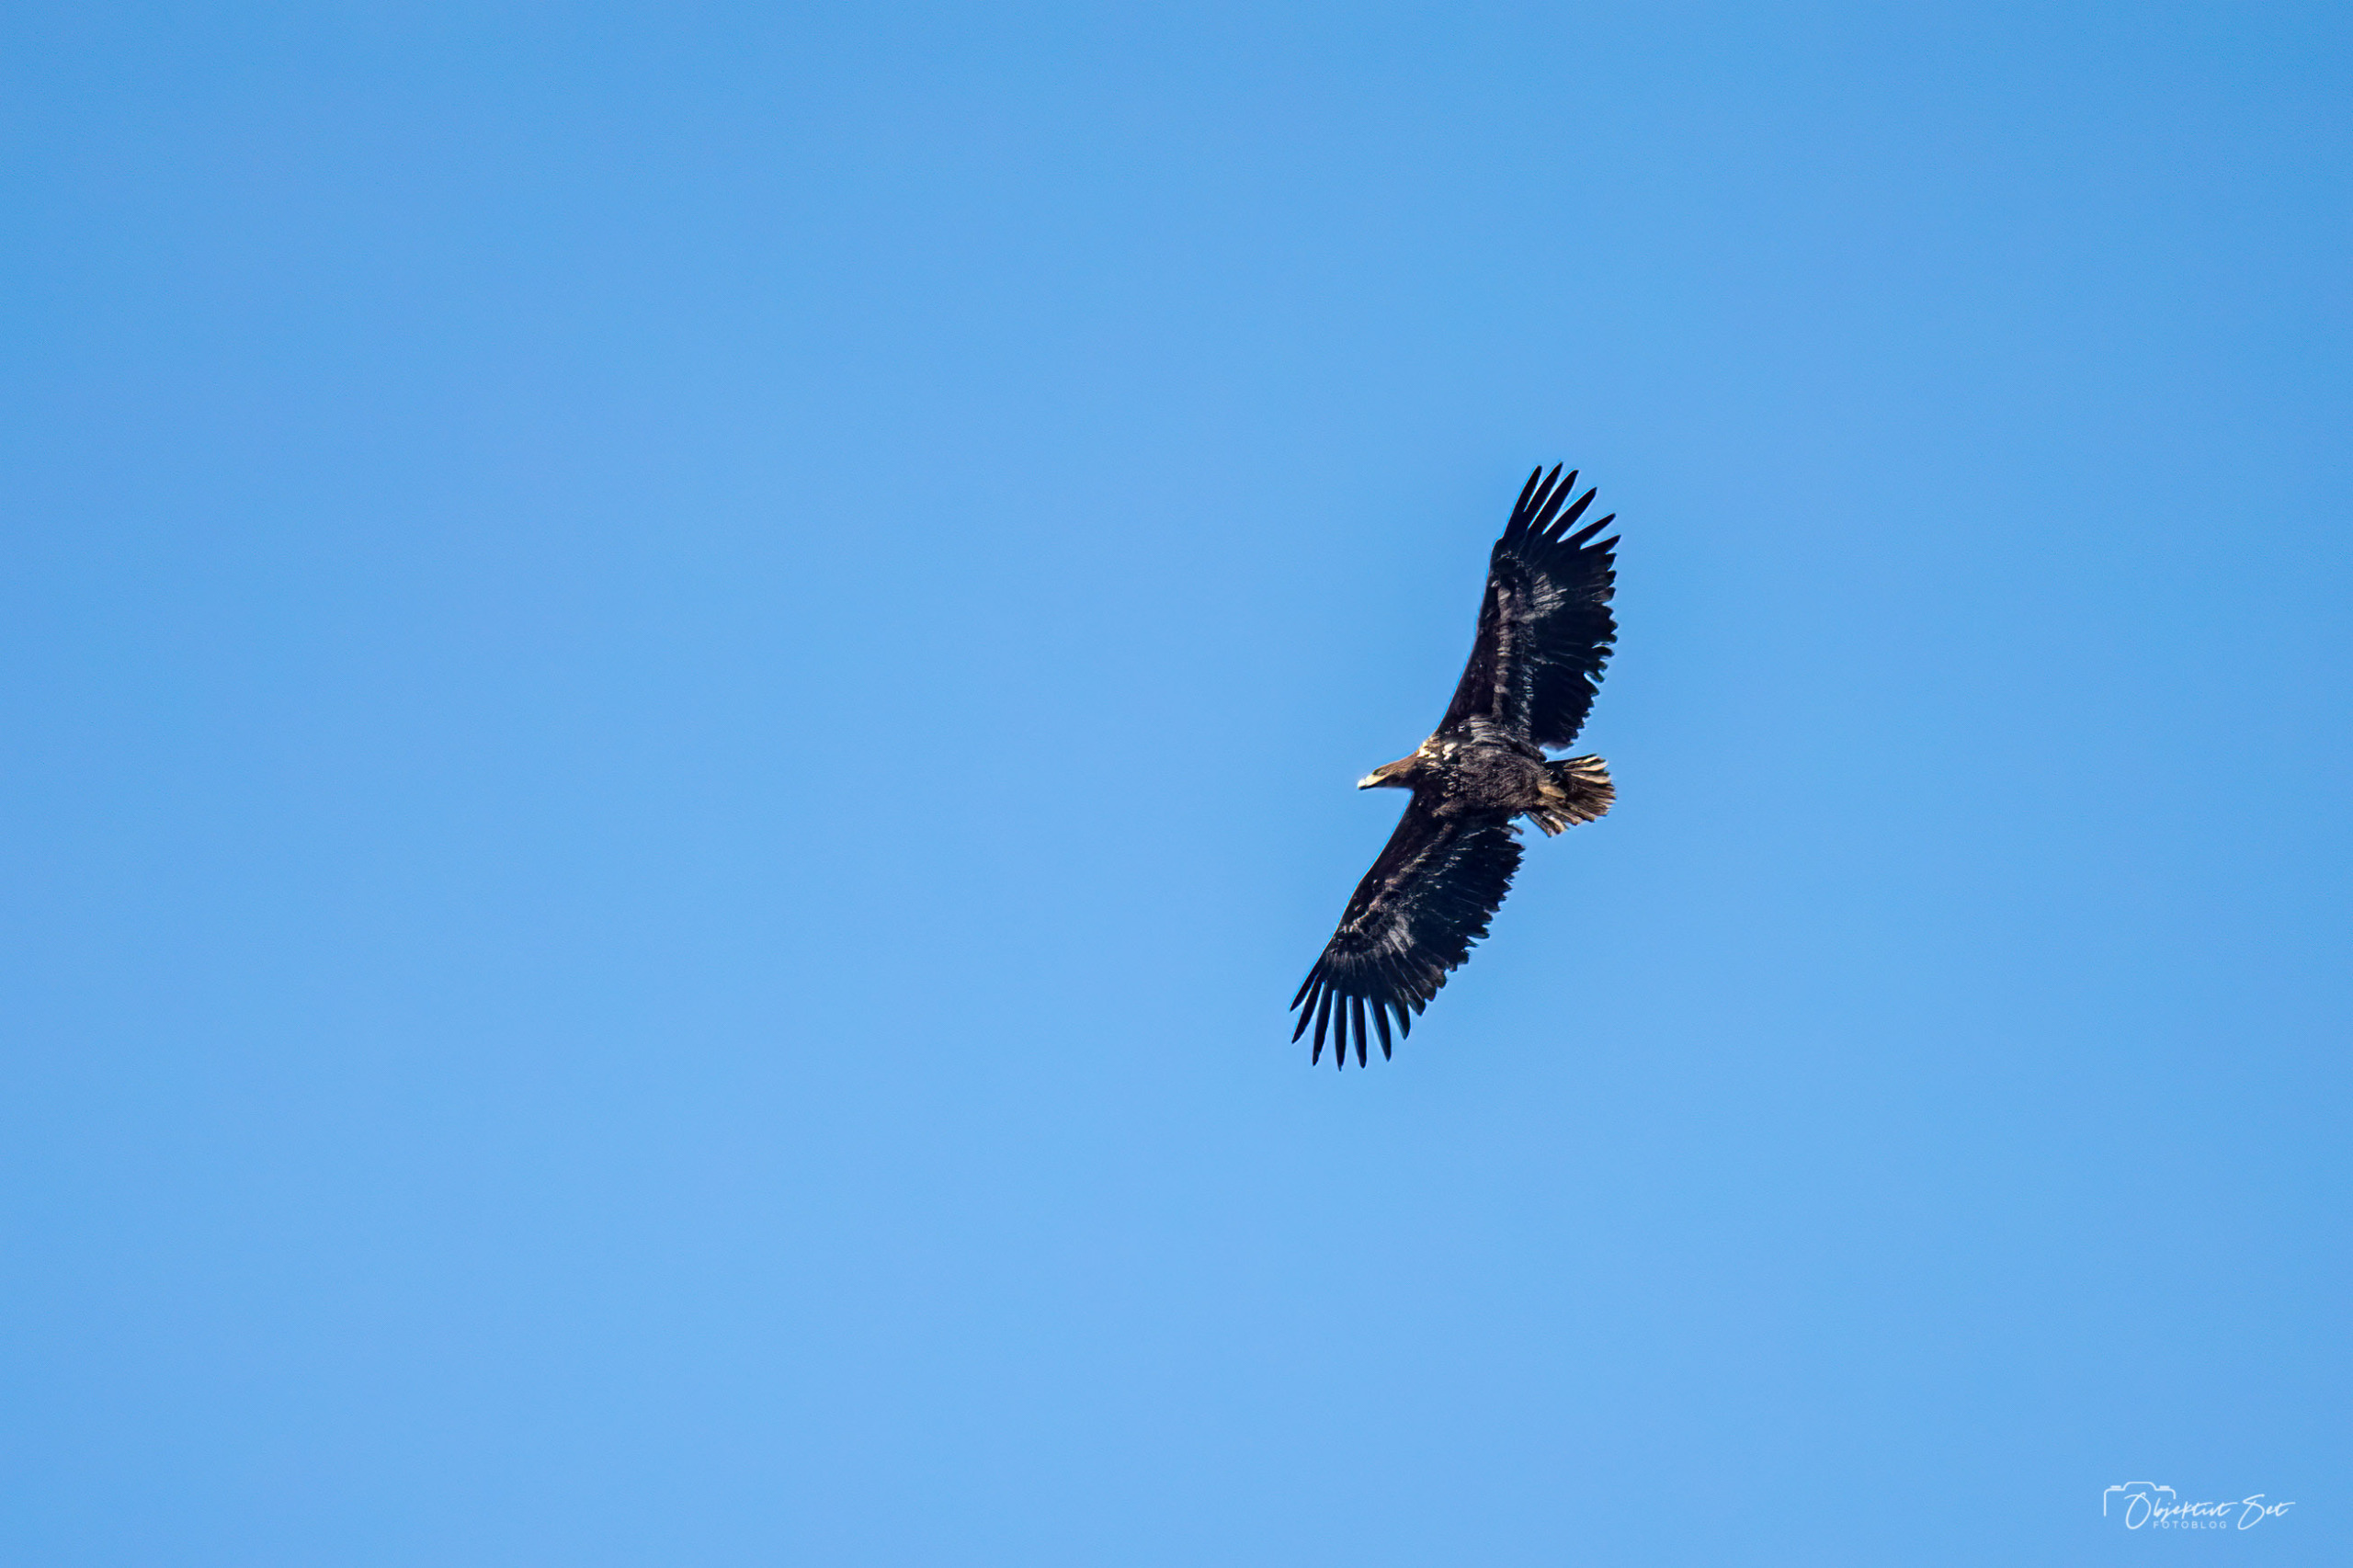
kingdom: Animalia
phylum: Chordata
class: Aves
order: Accipitriformes
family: Accipitridae
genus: Haliaeetus
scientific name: Haliaeetus albicilla
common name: Havørn
